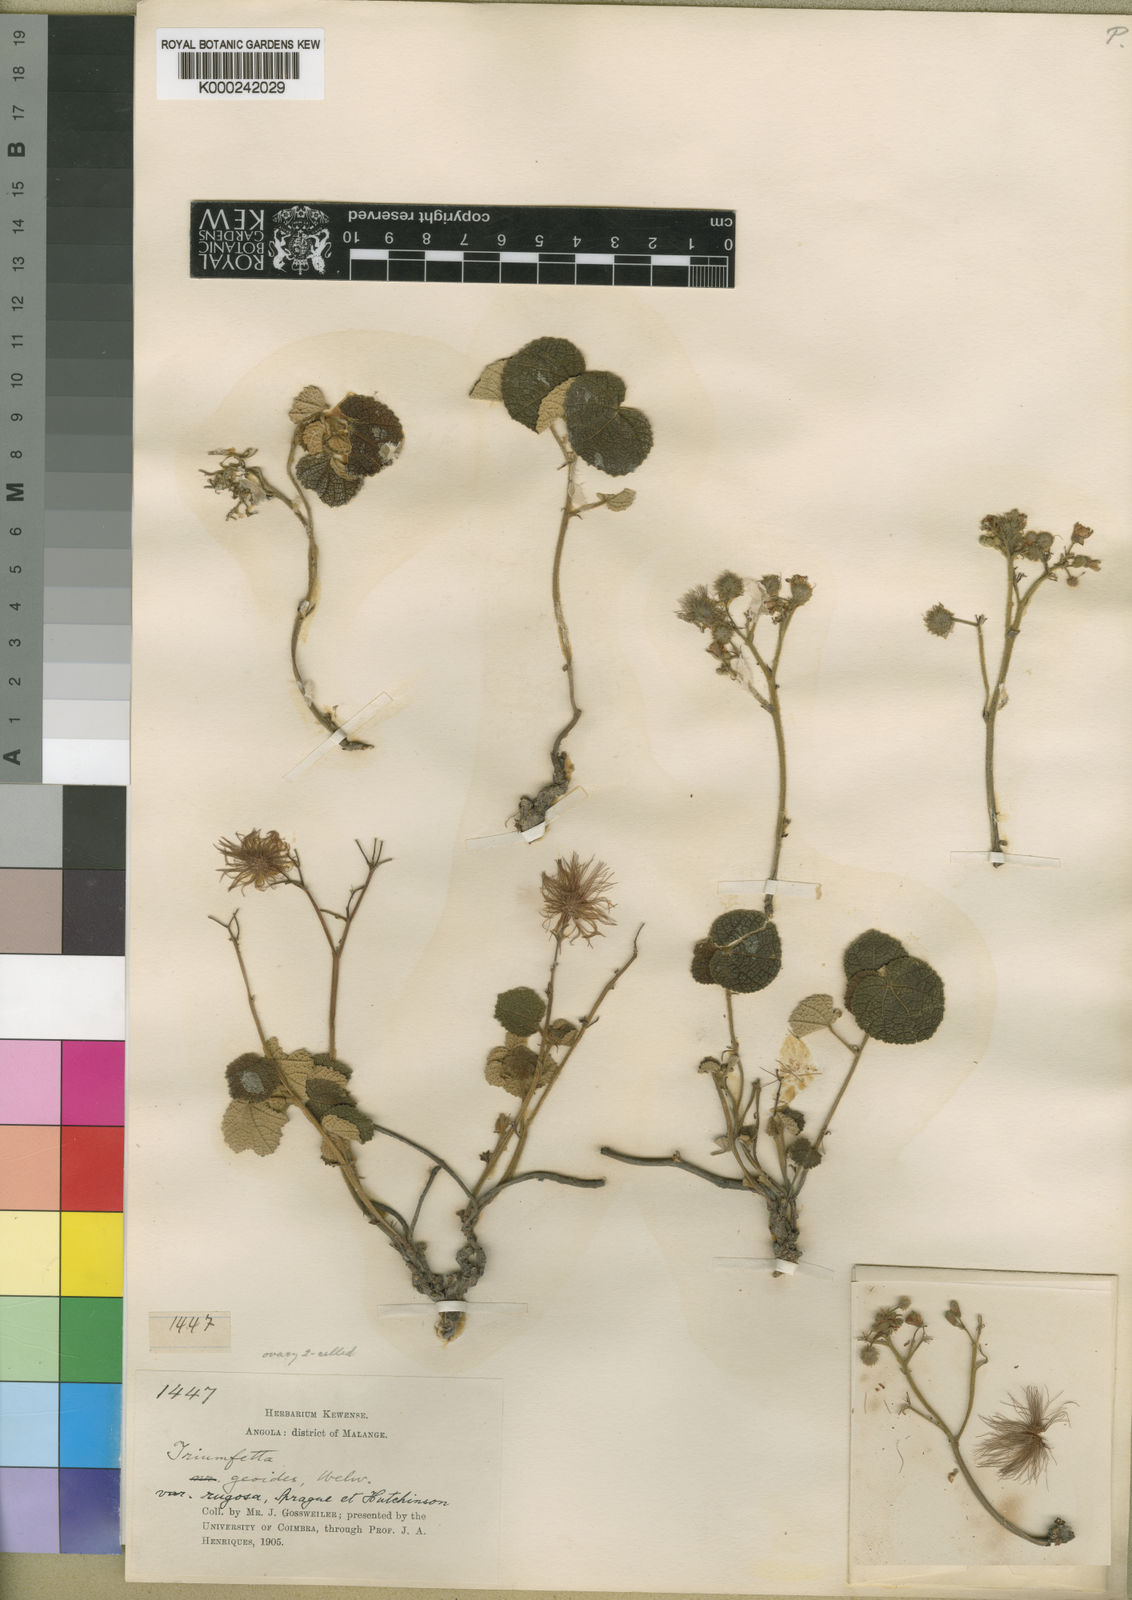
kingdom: Plantae
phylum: Tracheophyta
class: Magnoliopsida
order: Malvales
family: Malvaceae
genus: Triumfetta
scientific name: Triumfetta geoides
